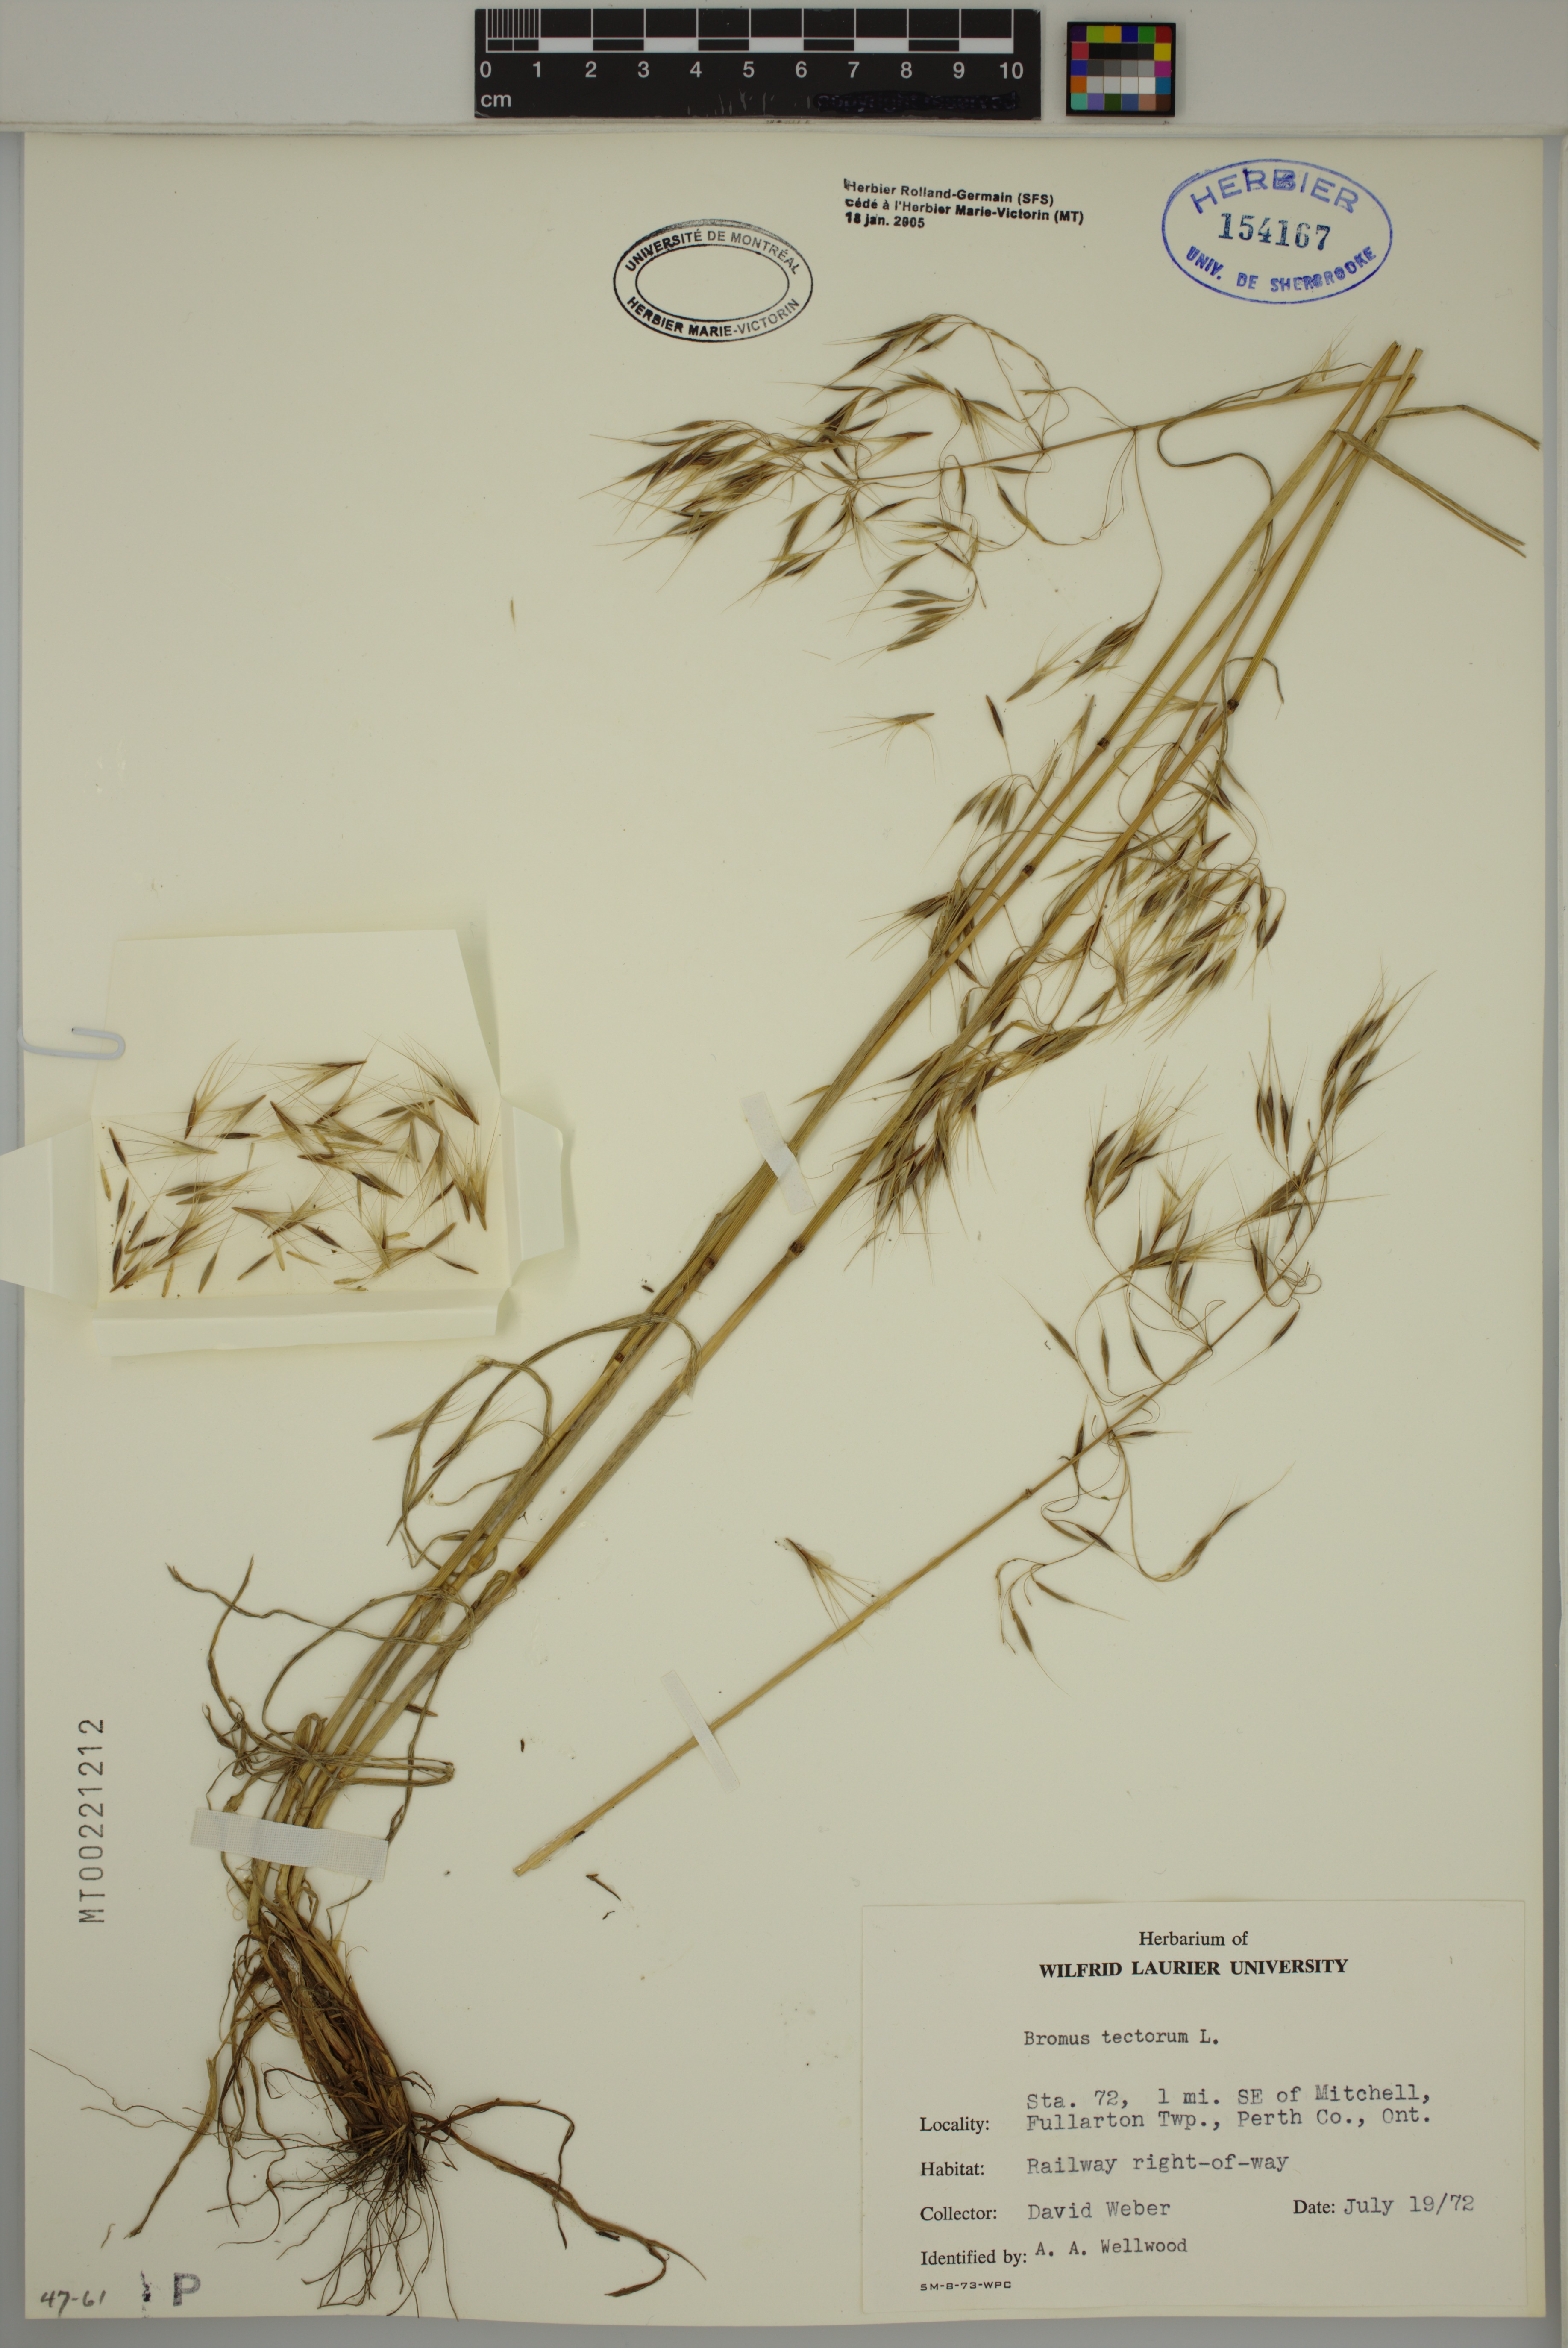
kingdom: Plantae
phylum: Tracheophyta
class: Liliopsida
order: Poales
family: Poaceae
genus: Bromus
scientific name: Bromus tectorum
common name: Cheatgrass
